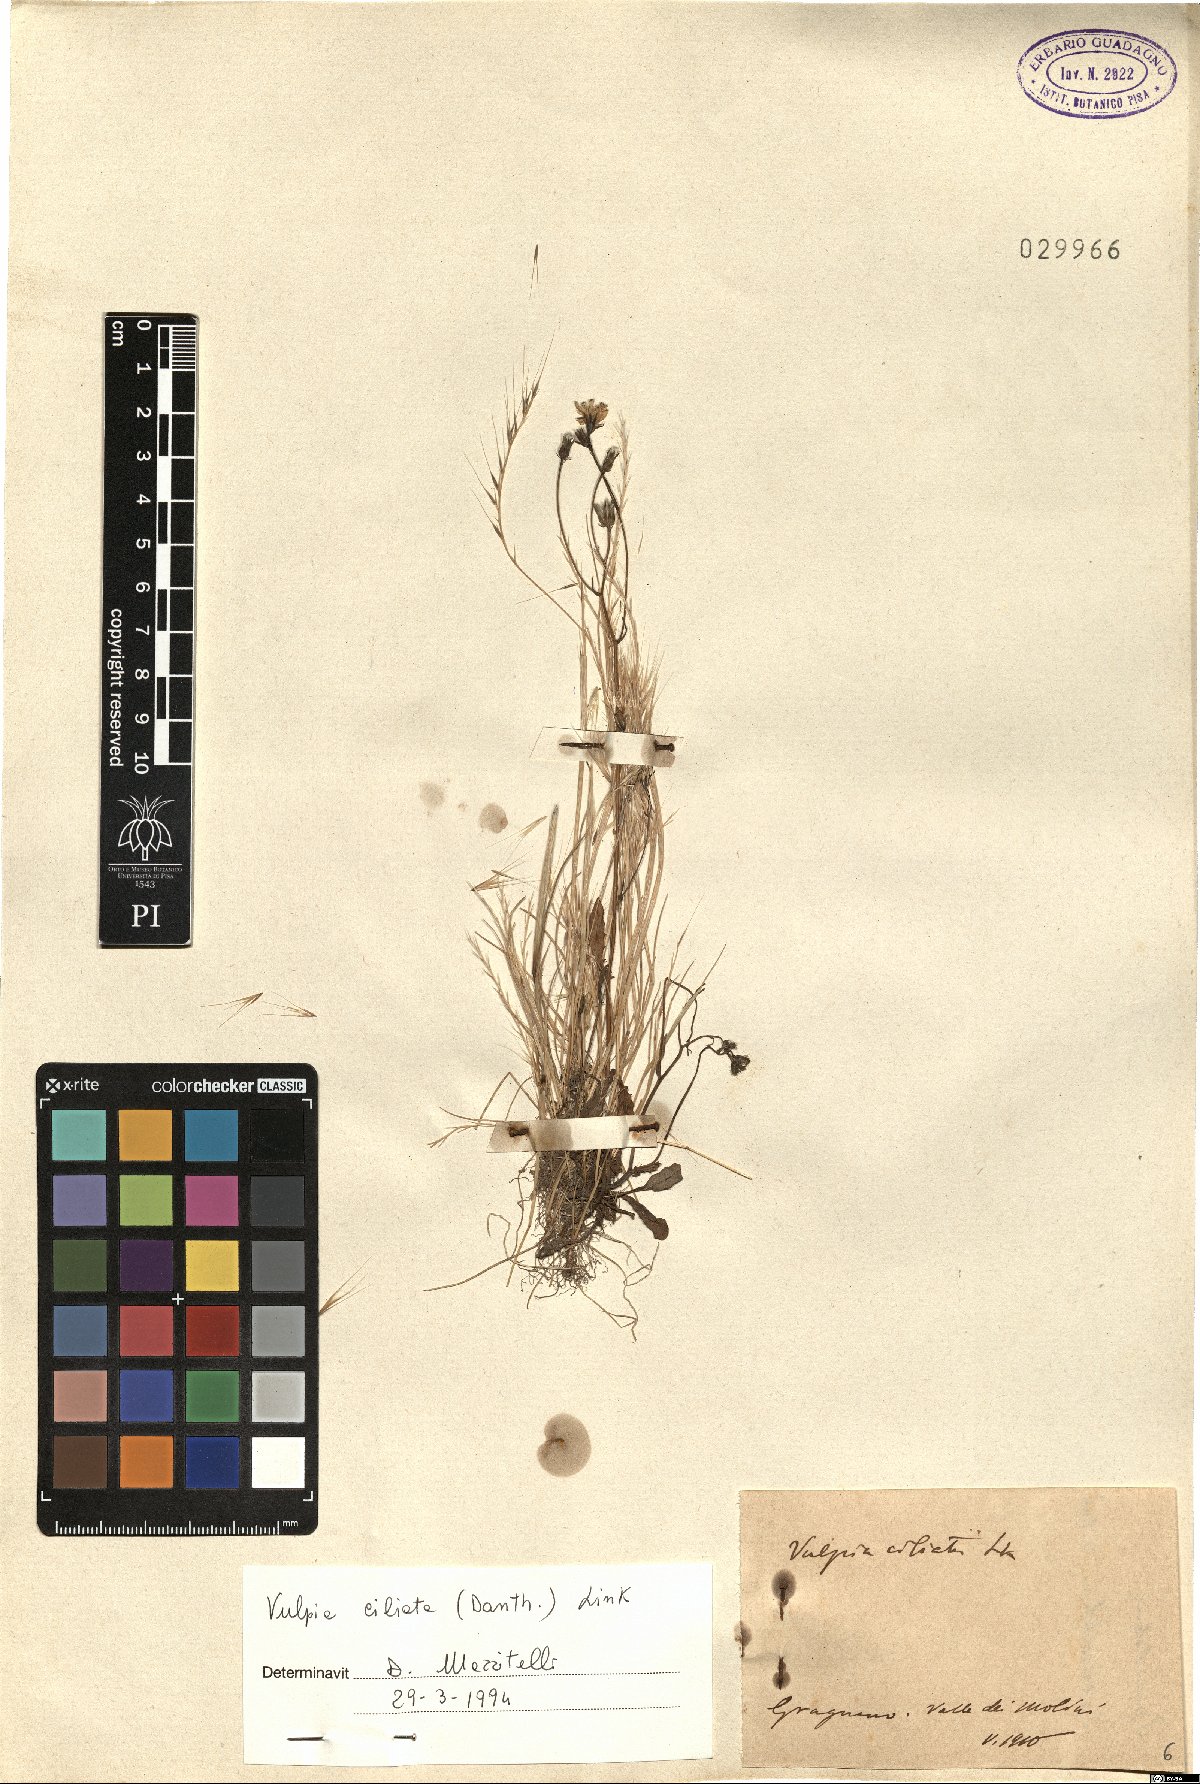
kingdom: Plantae
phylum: Tracheophyta
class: Liliopsida
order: Poales
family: Poaceae
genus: Festuca
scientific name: Festuca ambigua
